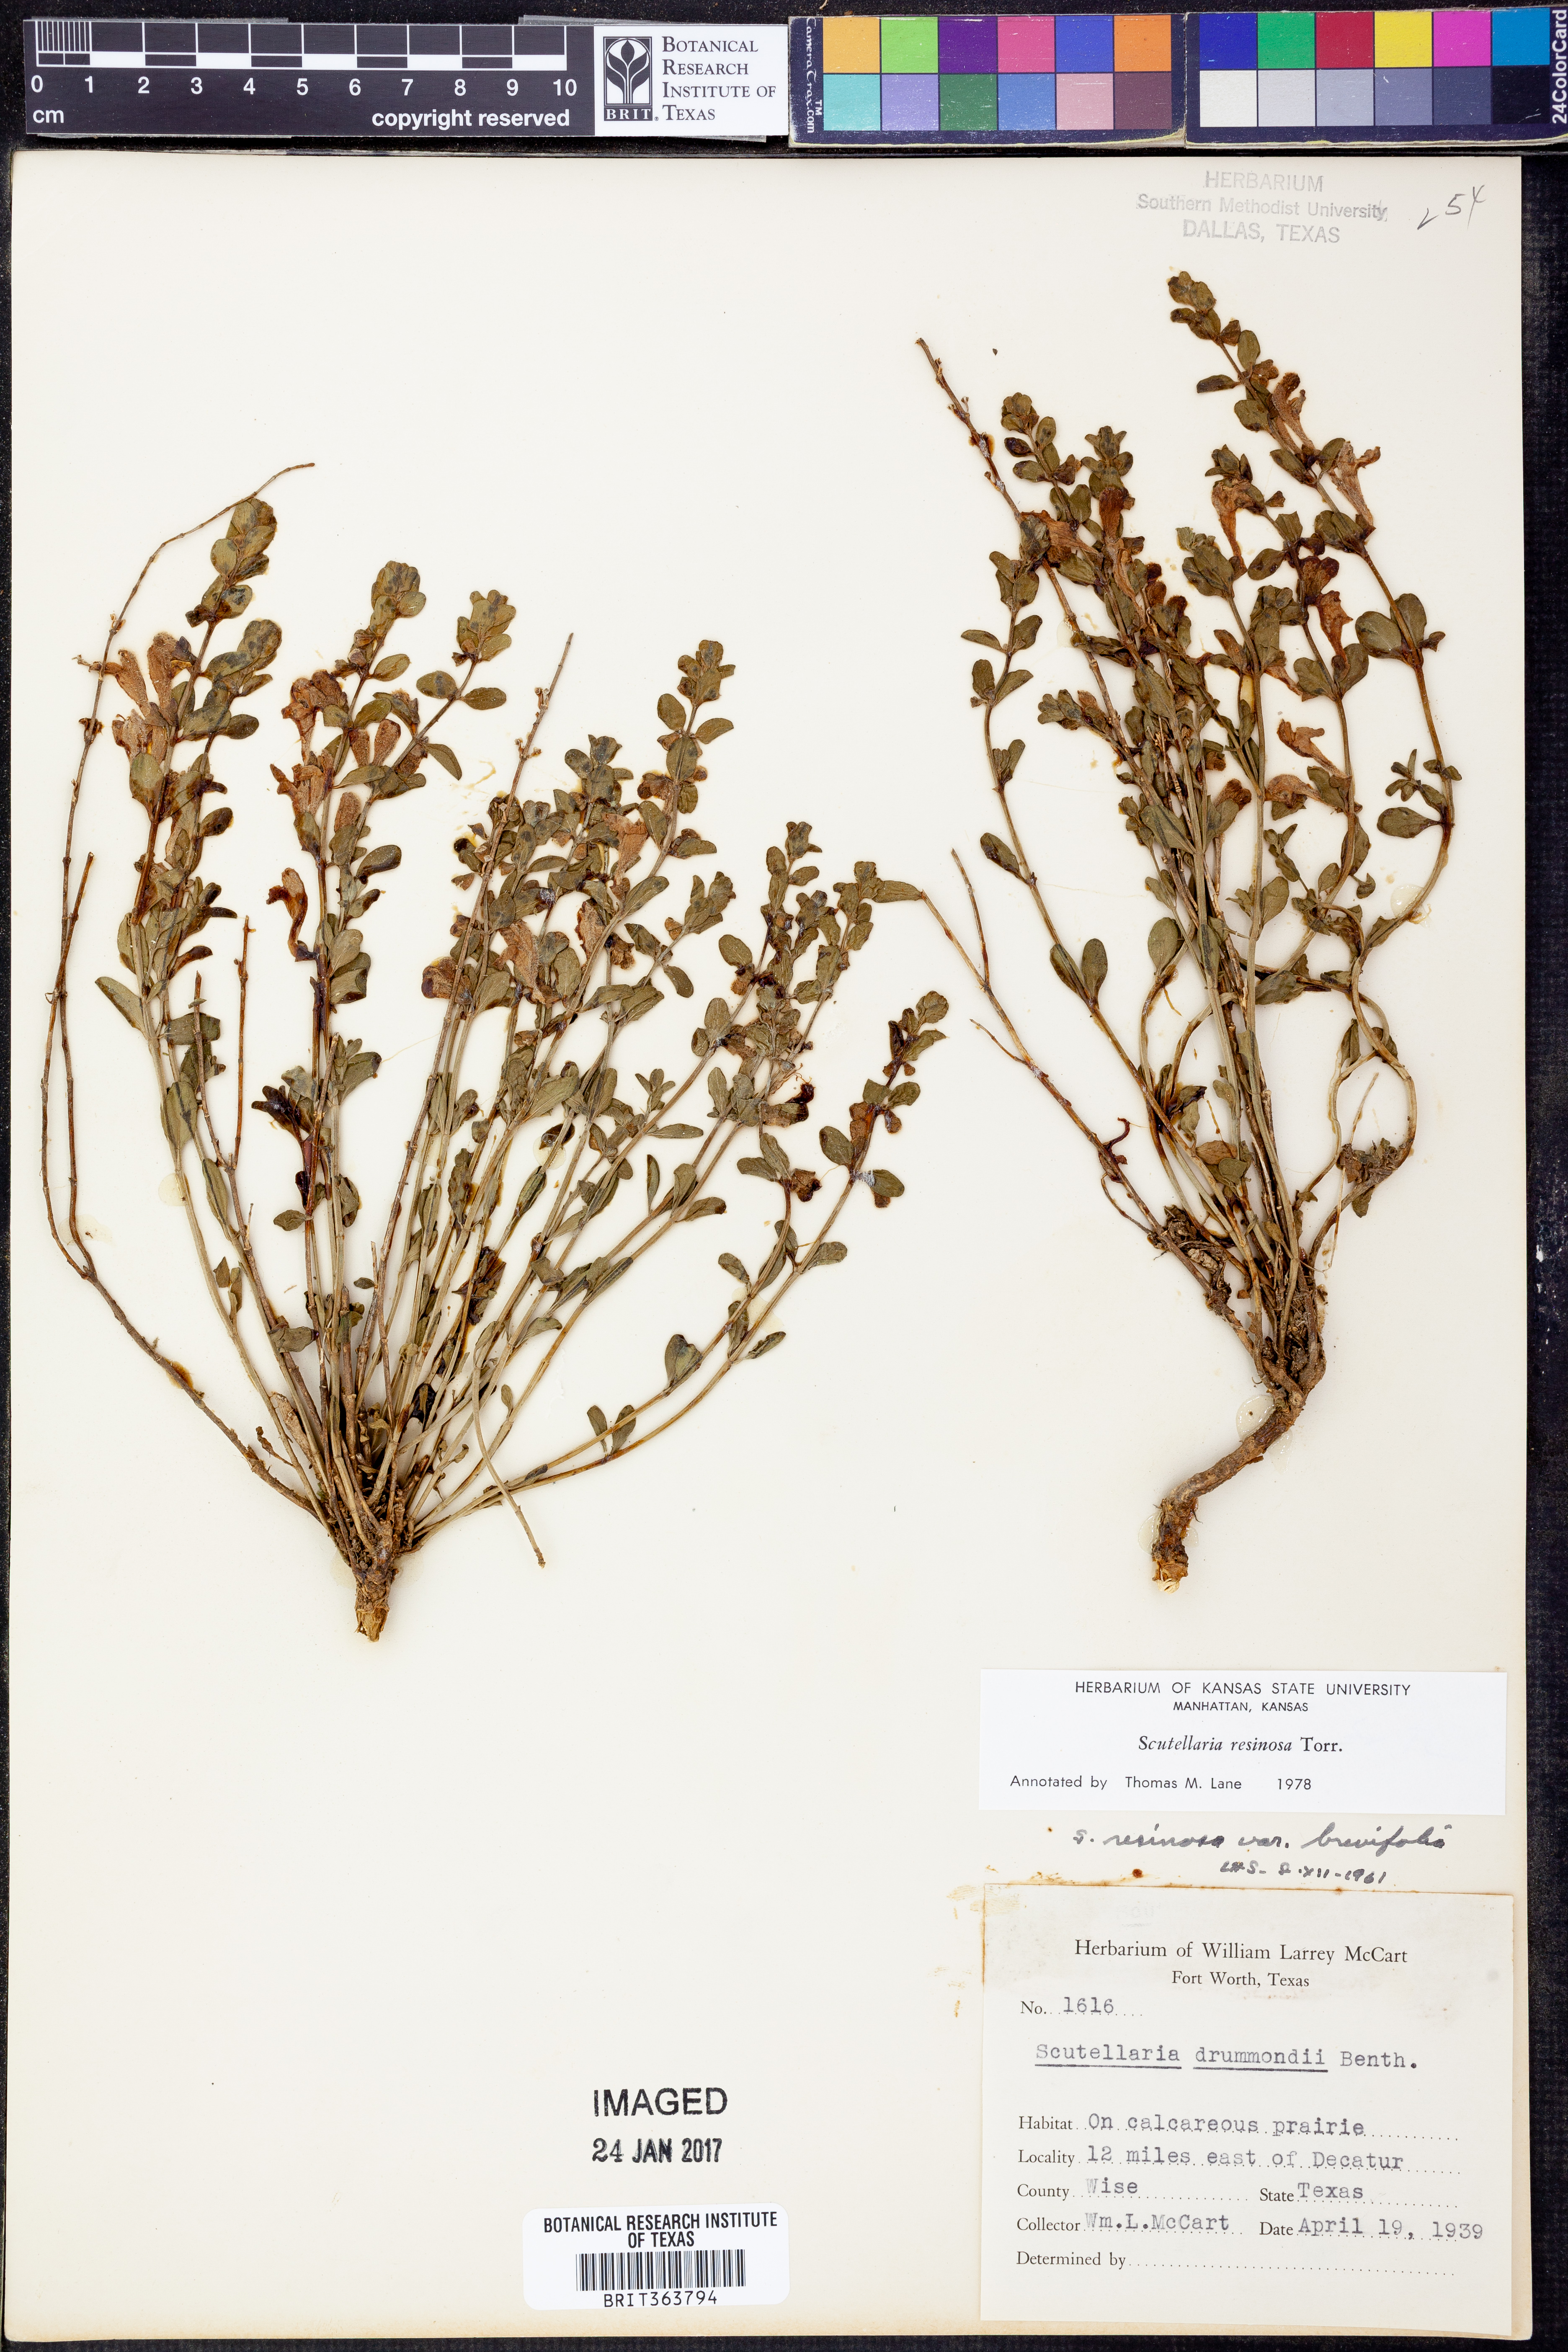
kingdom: Plantae
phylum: Tracheophyta
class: Magnoliopsida
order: Lamiales
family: Lamiaceae
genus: Scutellaria
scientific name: Scutellaria resinosa
